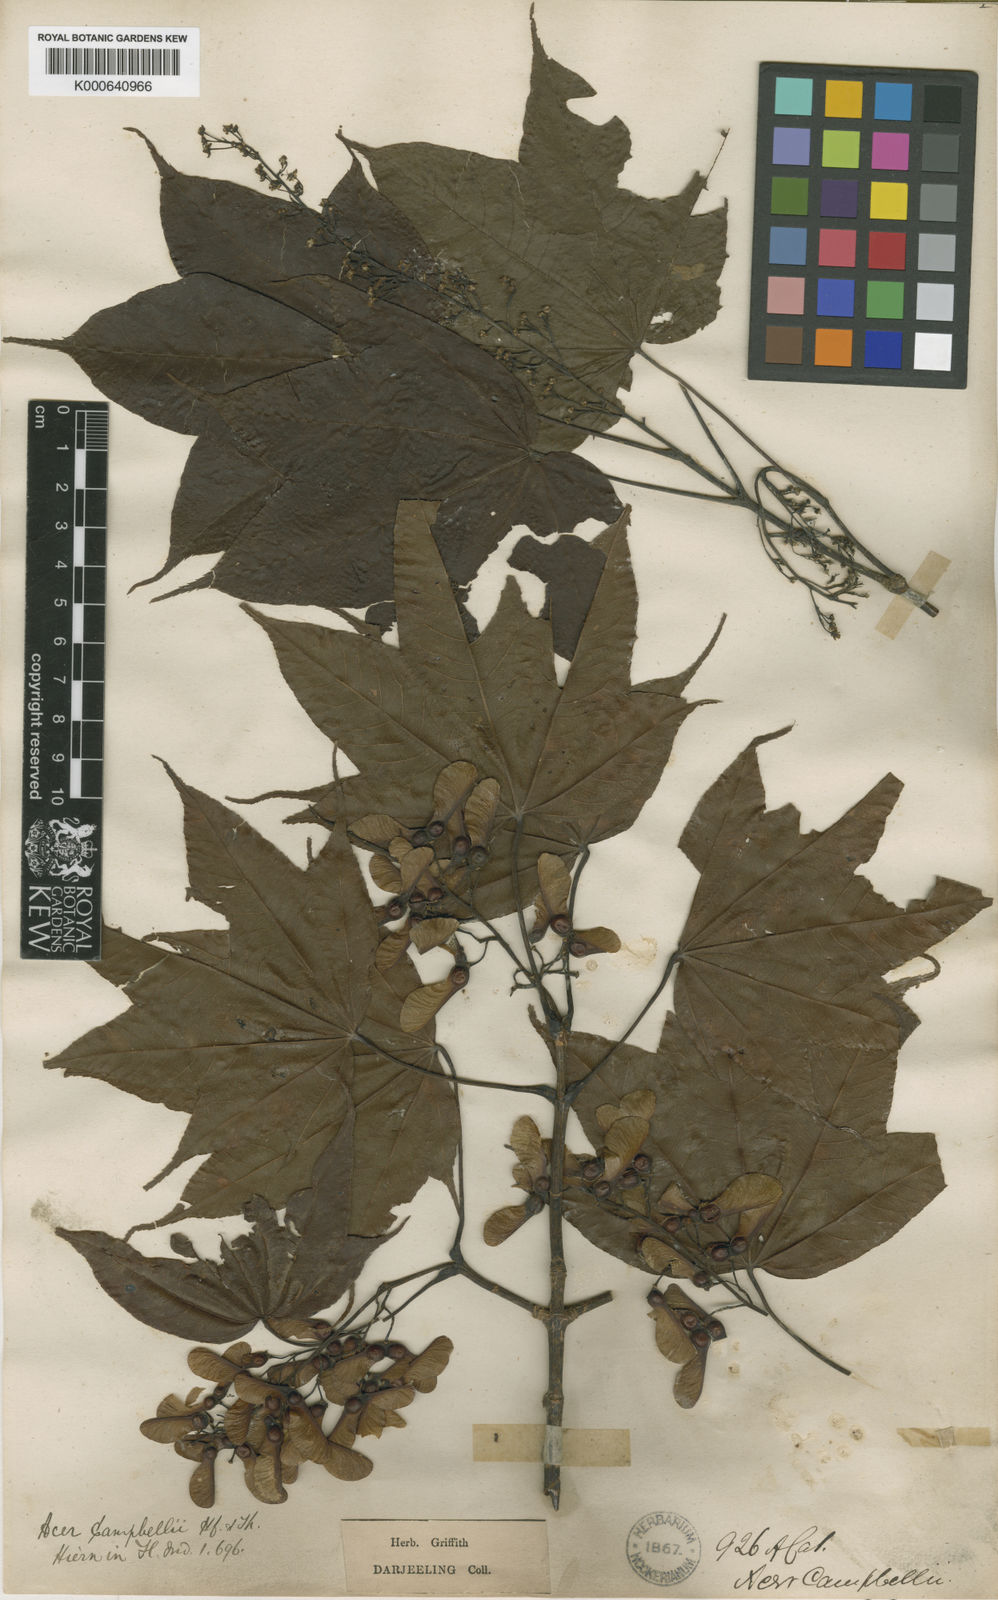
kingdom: Plantae
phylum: Tracheophyta
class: Magnoliopsida
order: Sapindales
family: Sapindaceae
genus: Acer
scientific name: Acer
